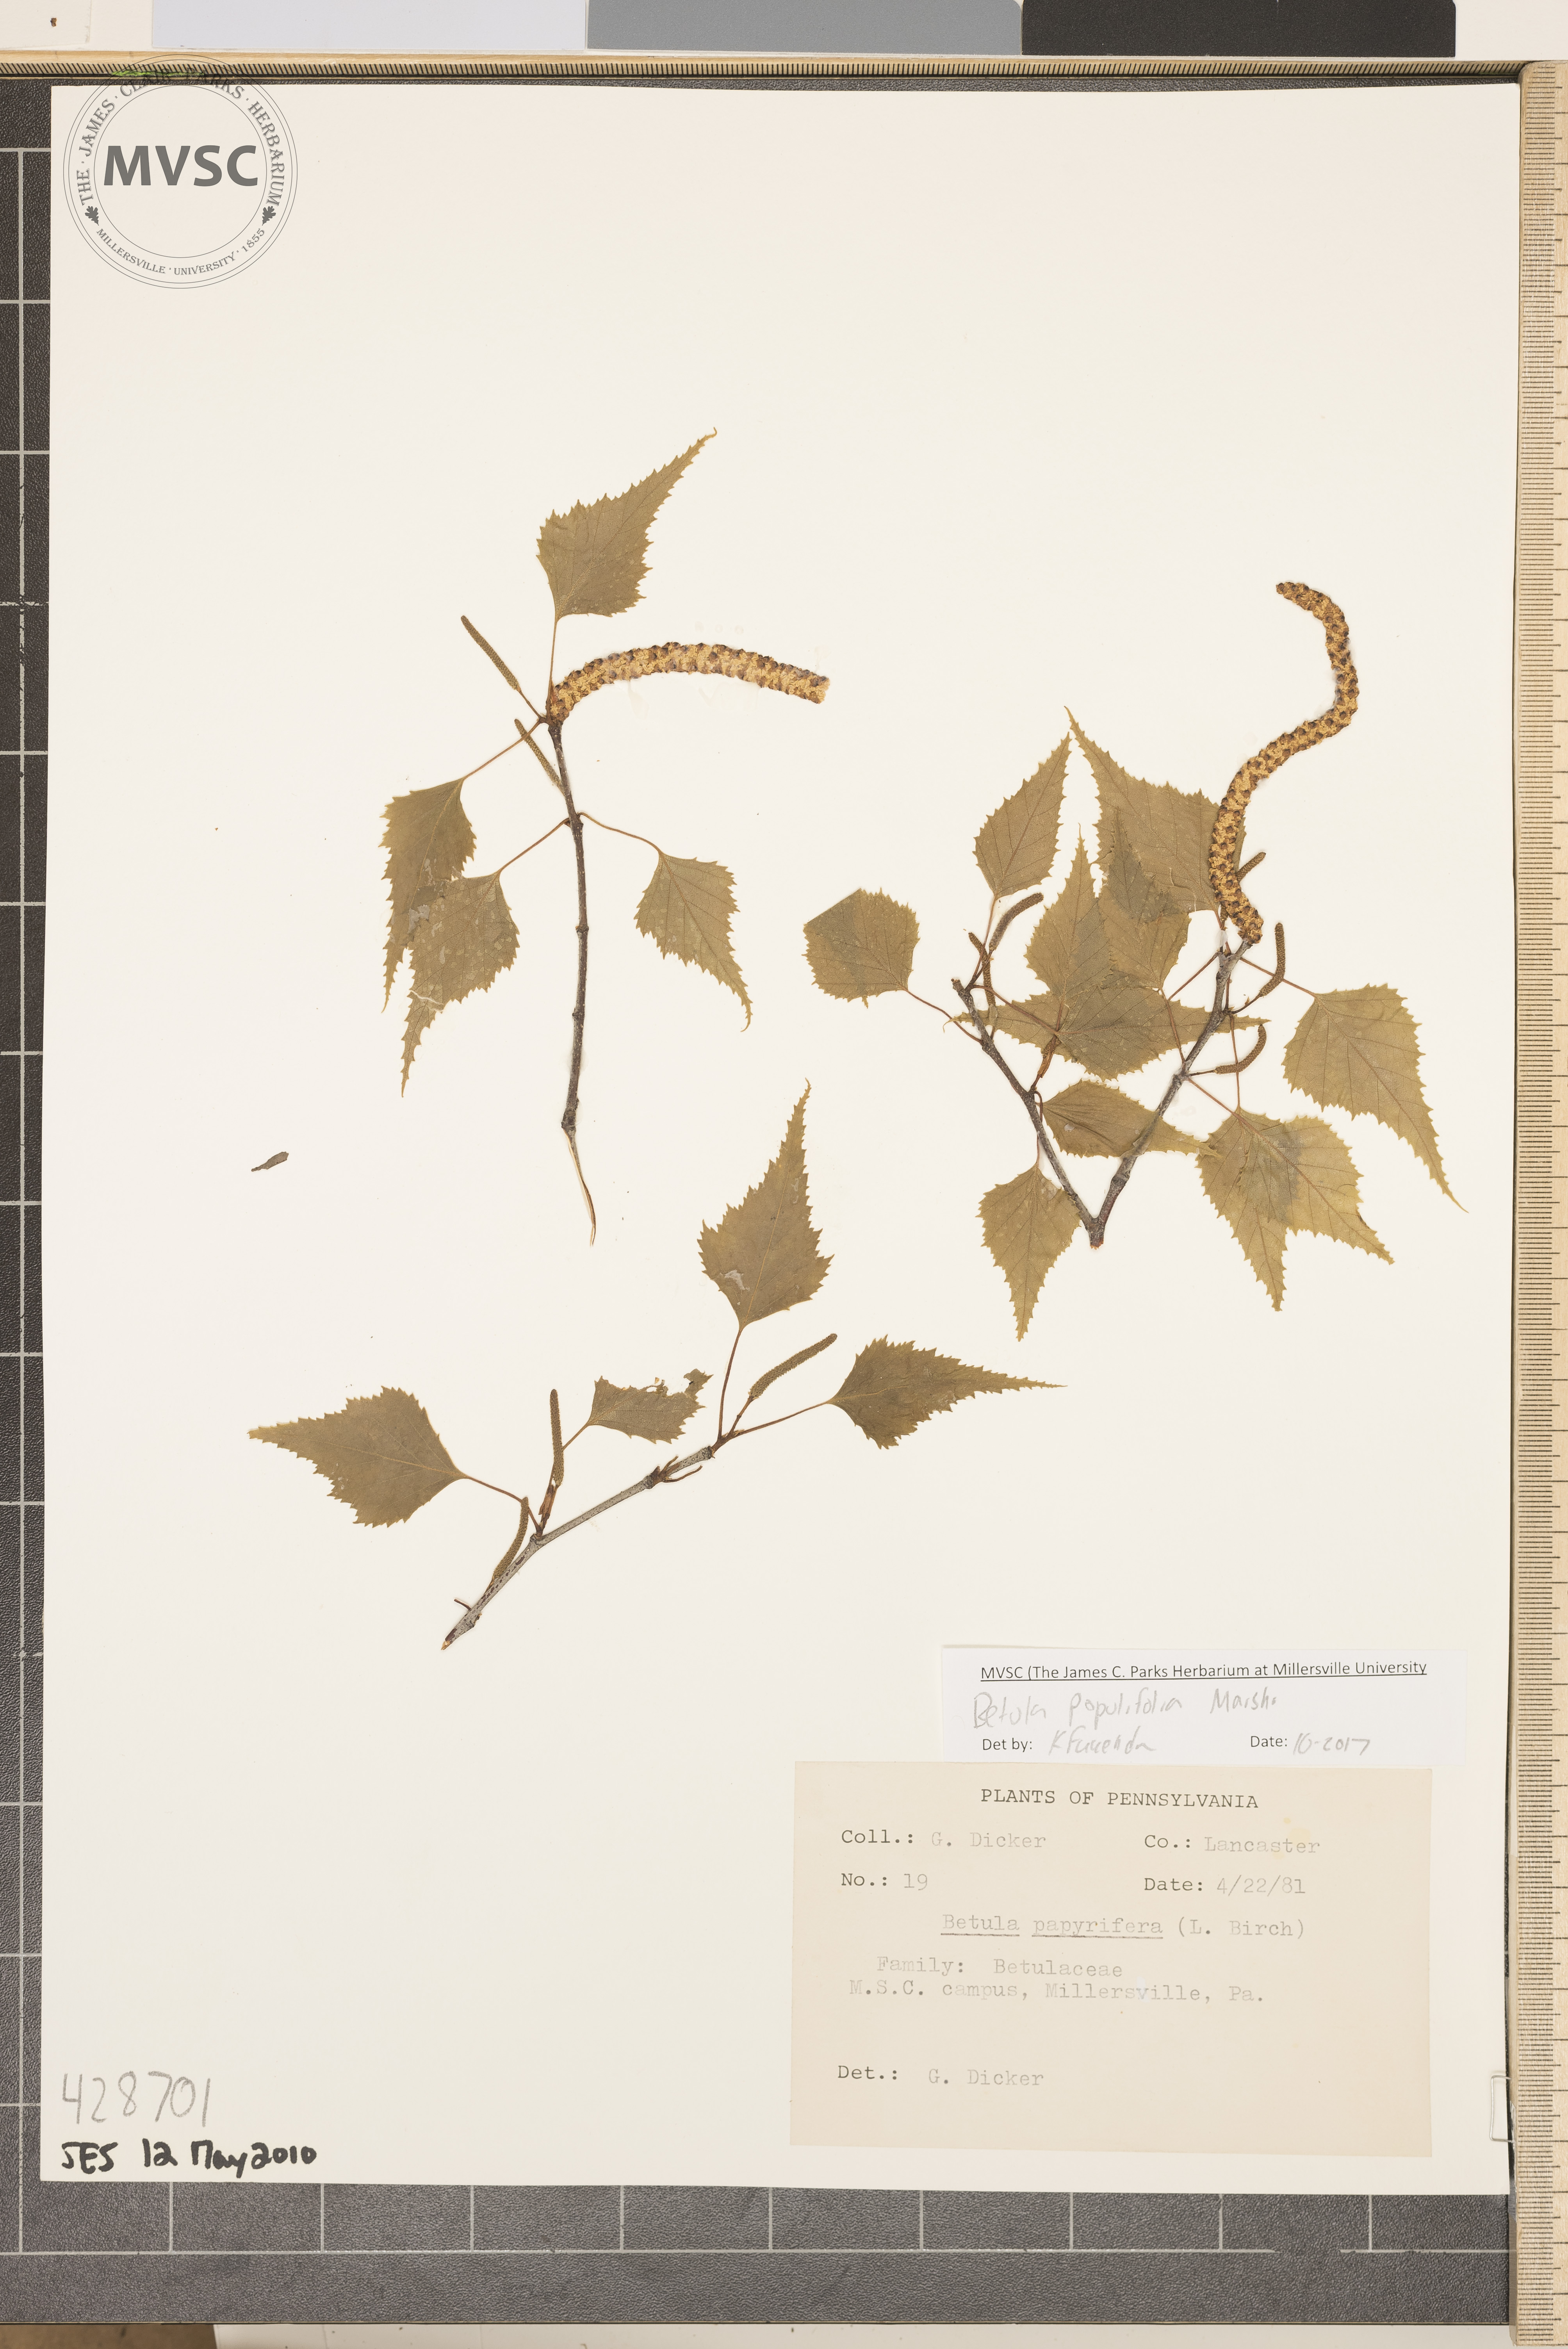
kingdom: Plantae
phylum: Tracheophyta
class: Magnoliopsida
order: Fagales
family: Betulaceae
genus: Betula
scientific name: Betula populifolia
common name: Gray birch
